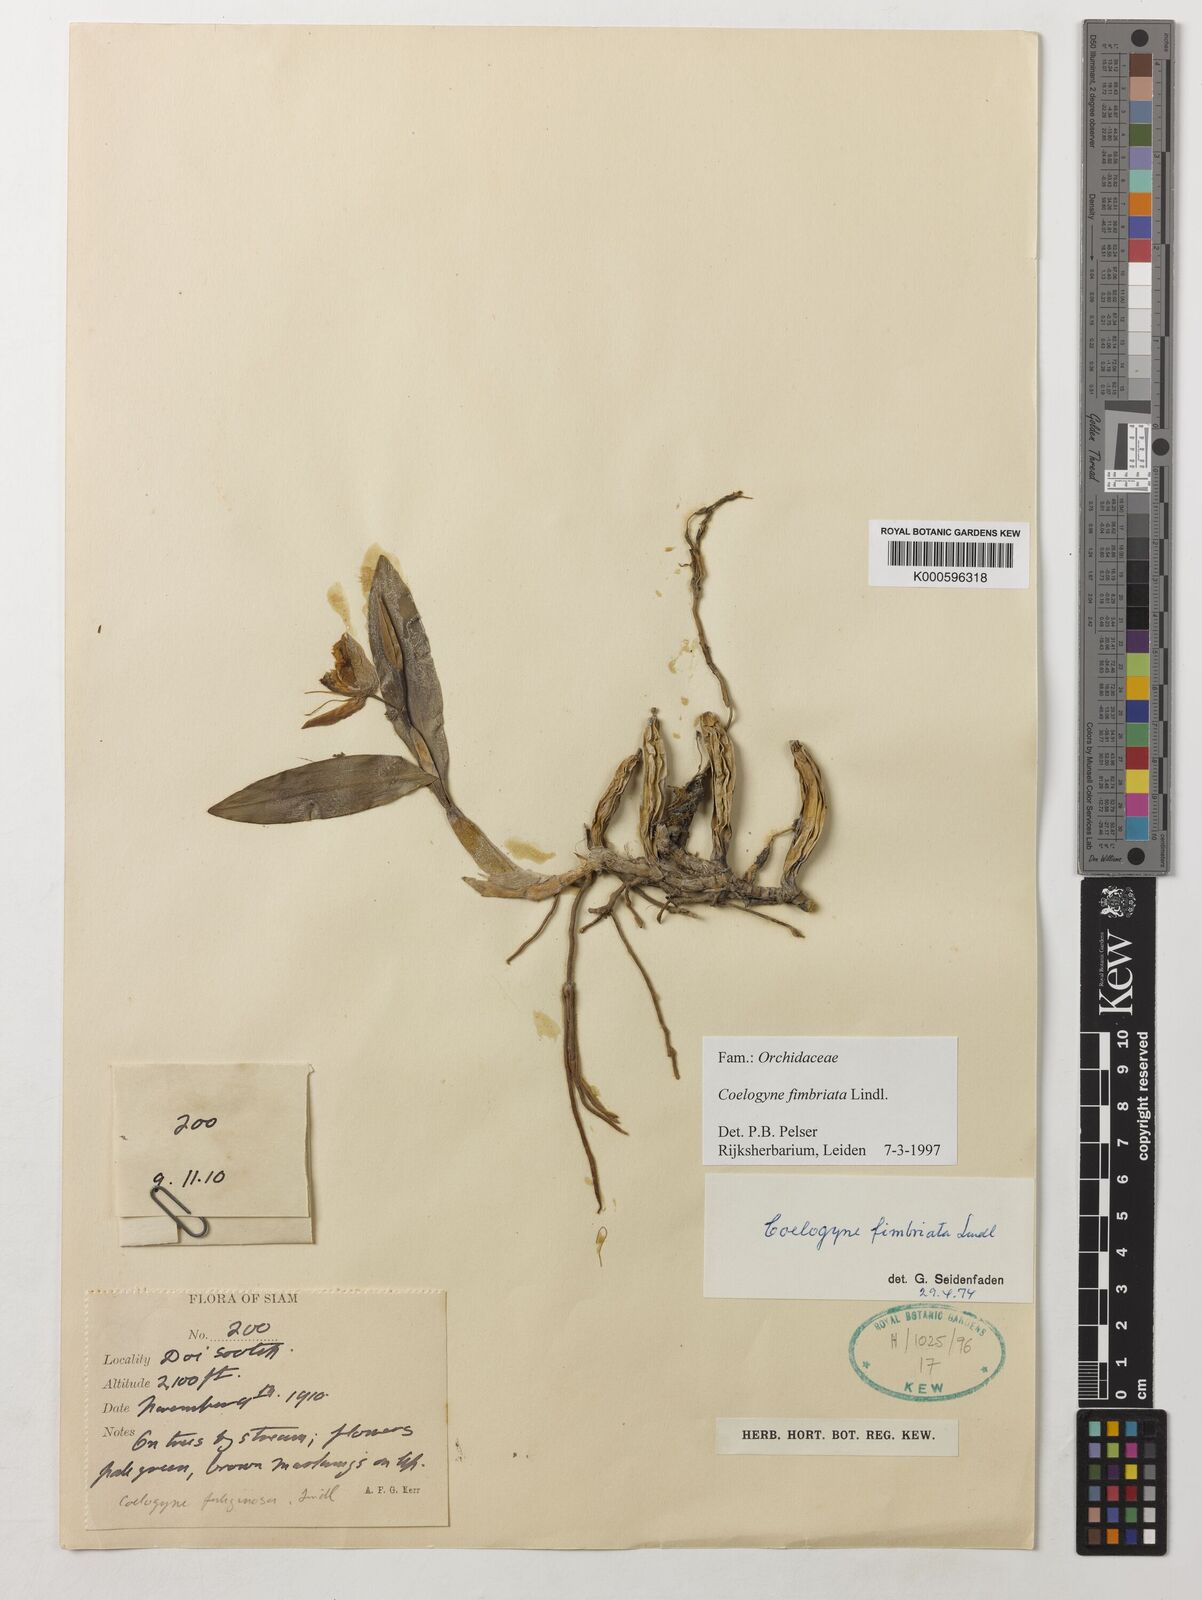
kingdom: Plantae
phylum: Tracheophyta
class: Liliopsida
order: Asparagales
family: Orchidaceae
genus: Coelogyne
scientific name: Coelogyne fimbriata
